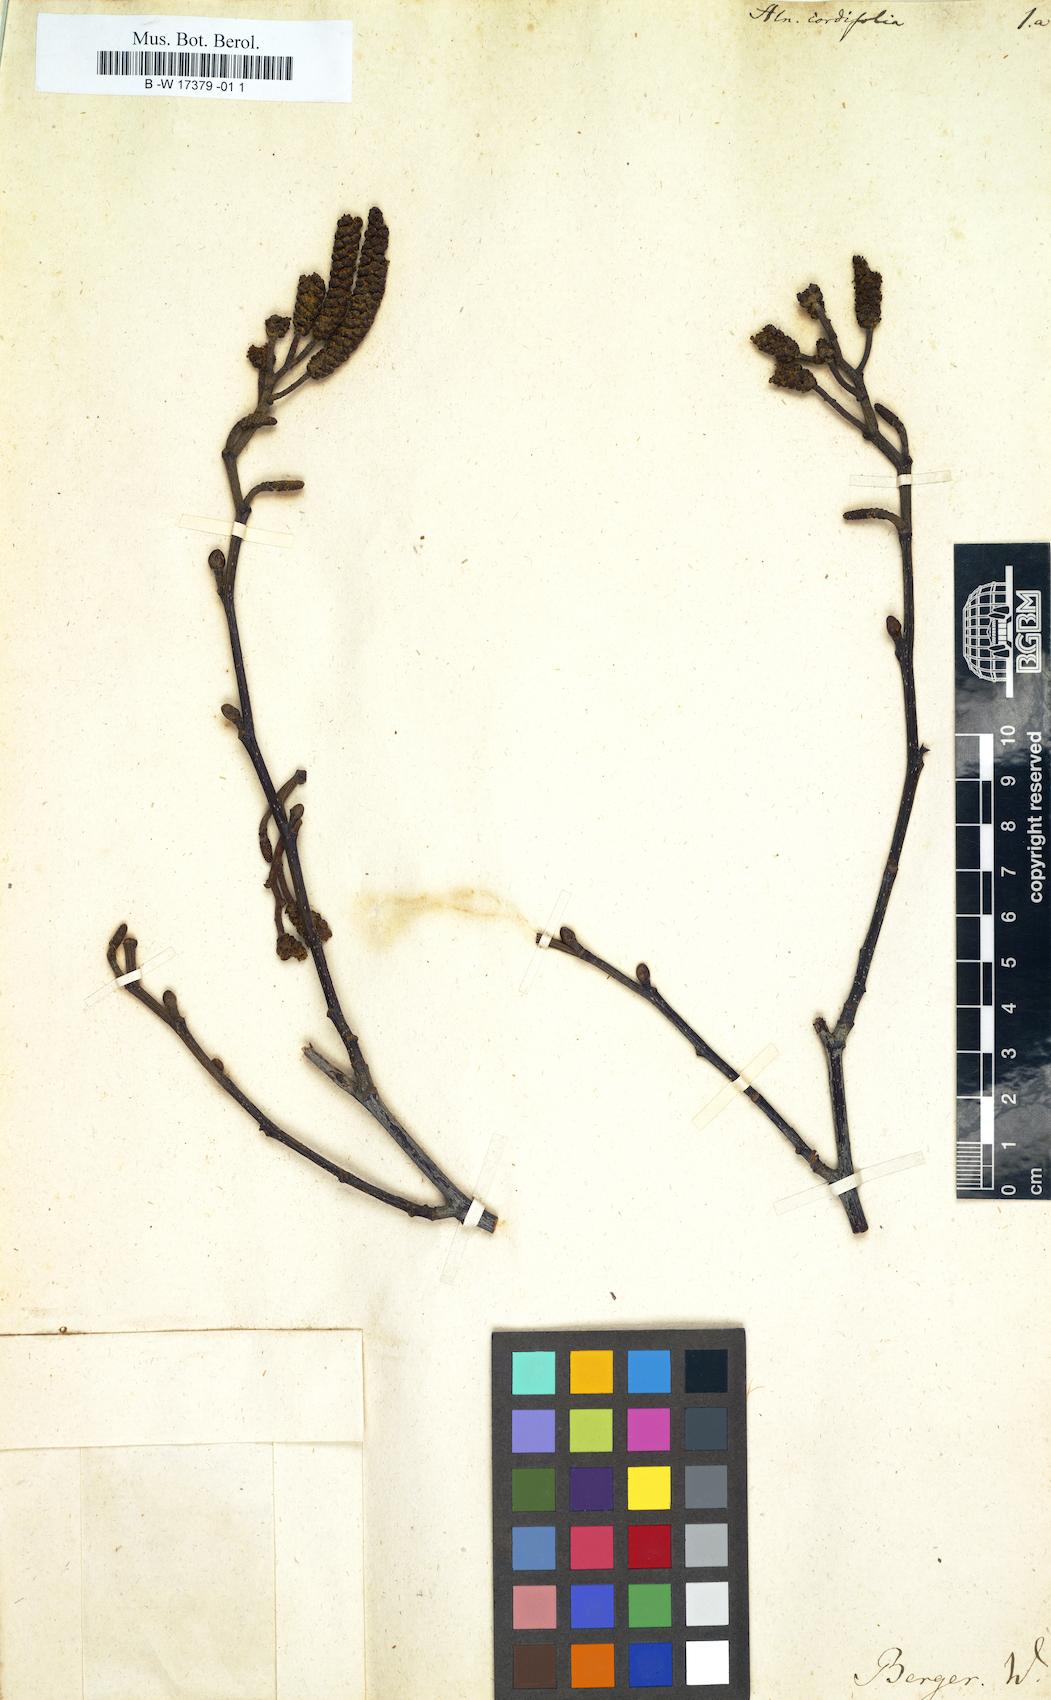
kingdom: Plantae
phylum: Tracheophyta
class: Magnoliopsida
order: Fagales
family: Betulaceae
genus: Alnus
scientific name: Alnus cordata
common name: Italian alder
